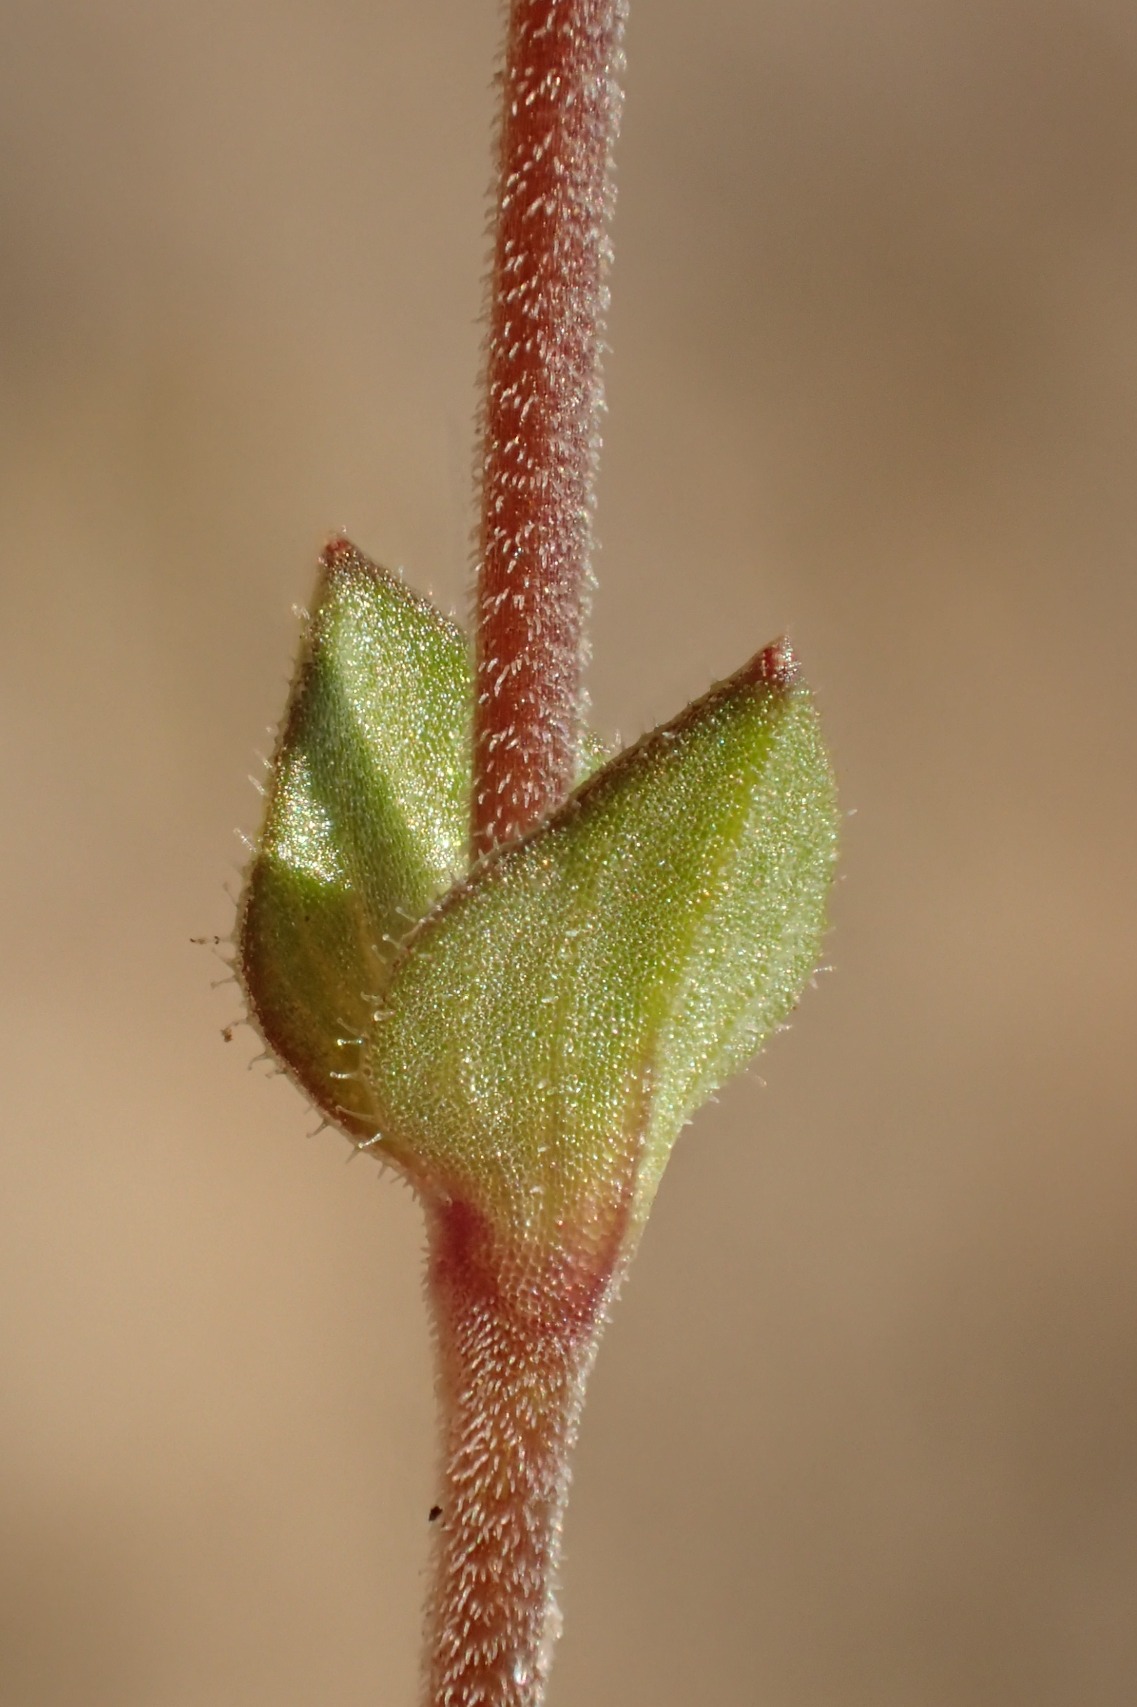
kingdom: Plantae
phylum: Tracheophyta
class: Magnoliopsida
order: Caryophyllales
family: Caryophyllaceae
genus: Arenaria
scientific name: Arenaria serpyllifolia
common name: Almindelig markarve
